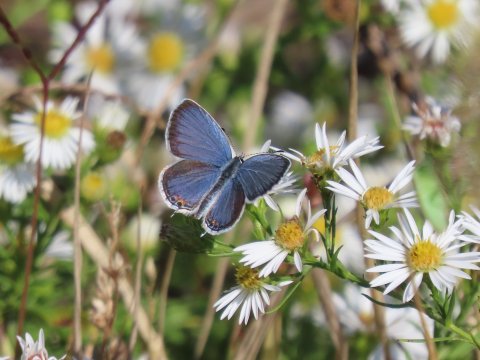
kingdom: Animalia
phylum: Arthropoda
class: Insecta
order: Lepidoptera
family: Lycaenidae
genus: Elkalyce
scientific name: Elkalyce comyntas
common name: Eastern Tailed-Blue
